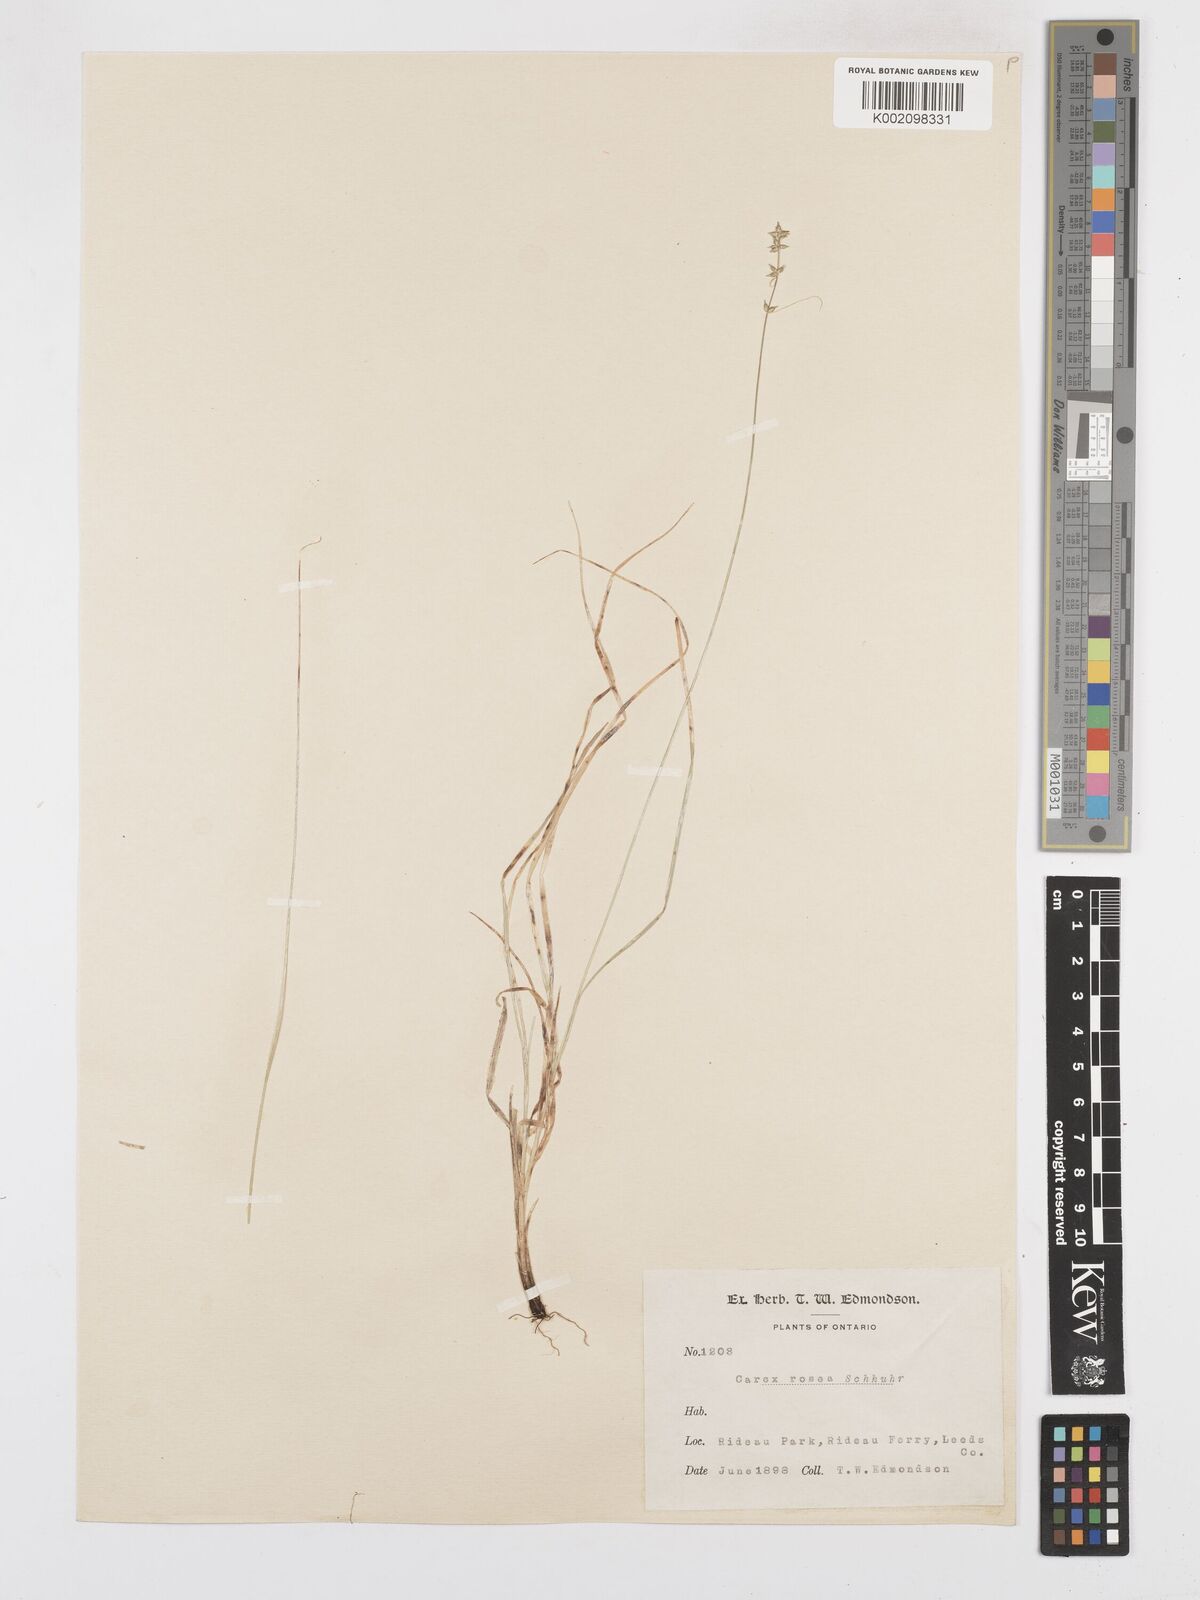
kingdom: Plantae
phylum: Tracheophyta
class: Liliopsida
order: Poales
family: Cyperaceae
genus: Carex
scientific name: Carex rosea
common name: Curly-styled wood sedge
